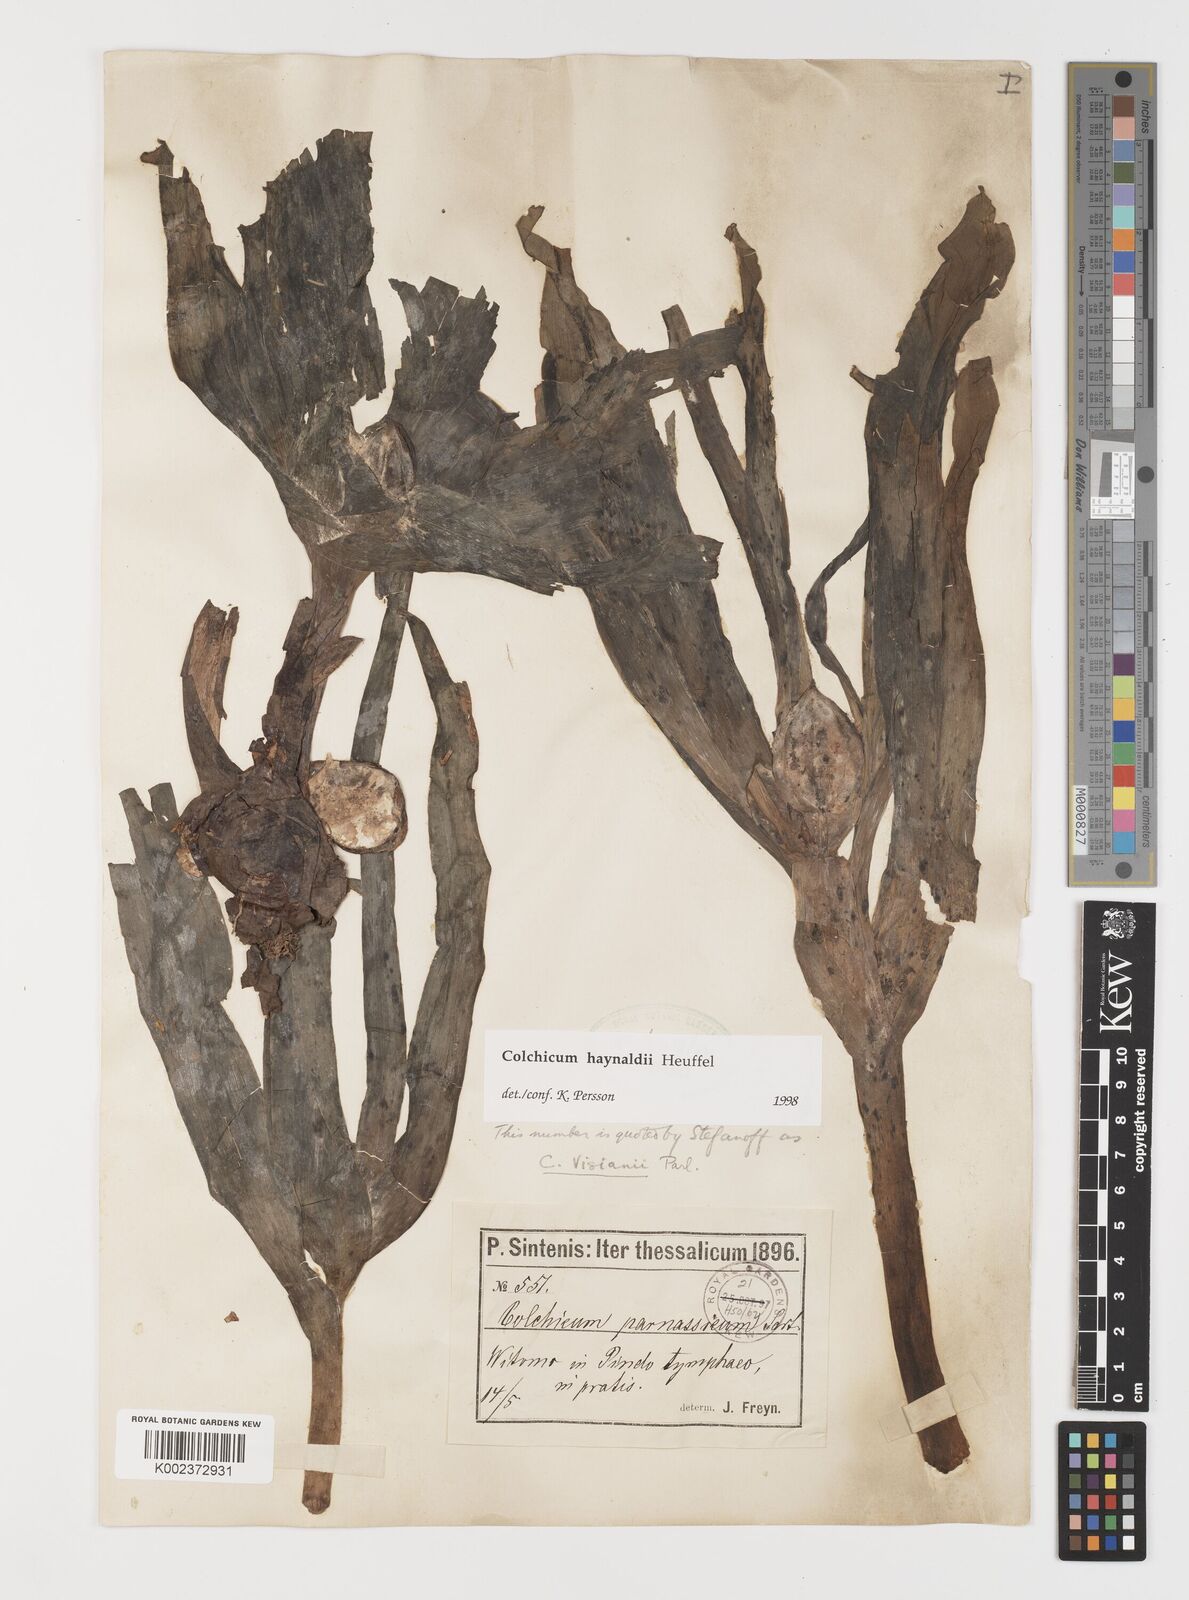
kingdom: Plantae
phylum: Tracheophyta
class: Liliopsida
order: Liliales
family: Colchicaceae
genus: Colchicum
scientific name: Colchicum haynaldii
